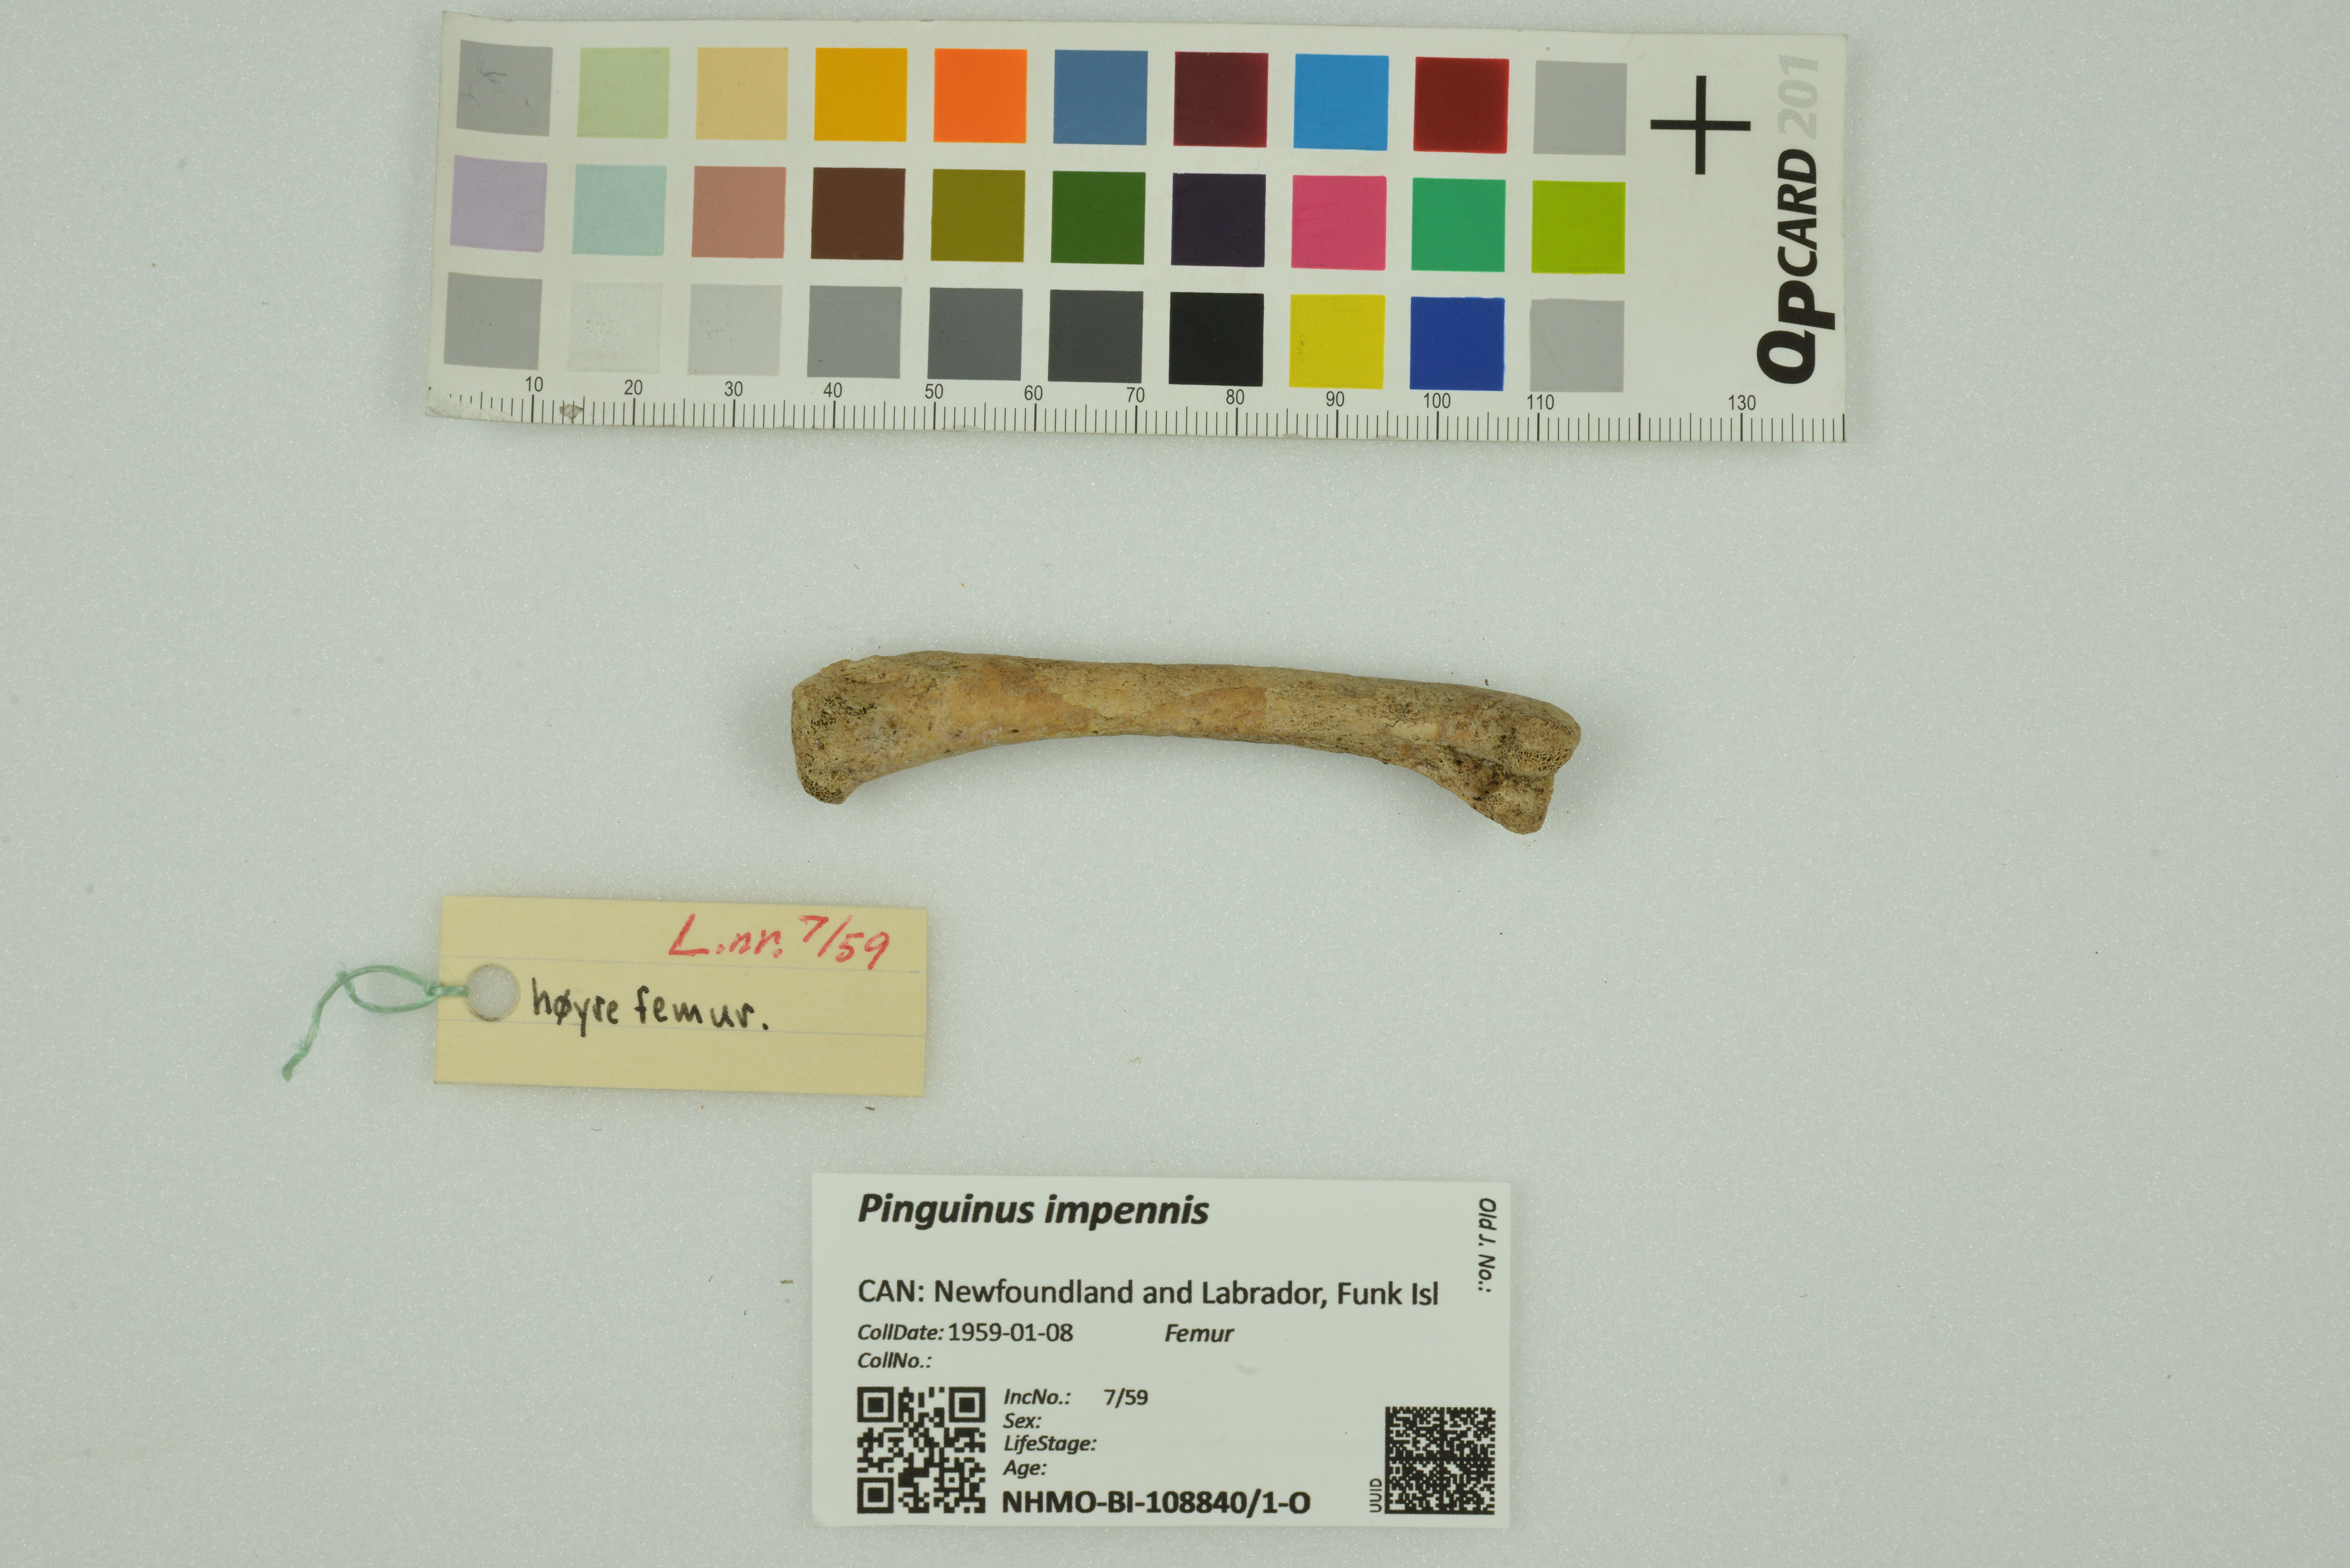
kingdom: Animalia
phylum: Chordata
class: Aves
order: Charadriiformes
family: Alcidae
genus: Pinguinus
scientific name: Pinguinus impennis
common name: Great auk
